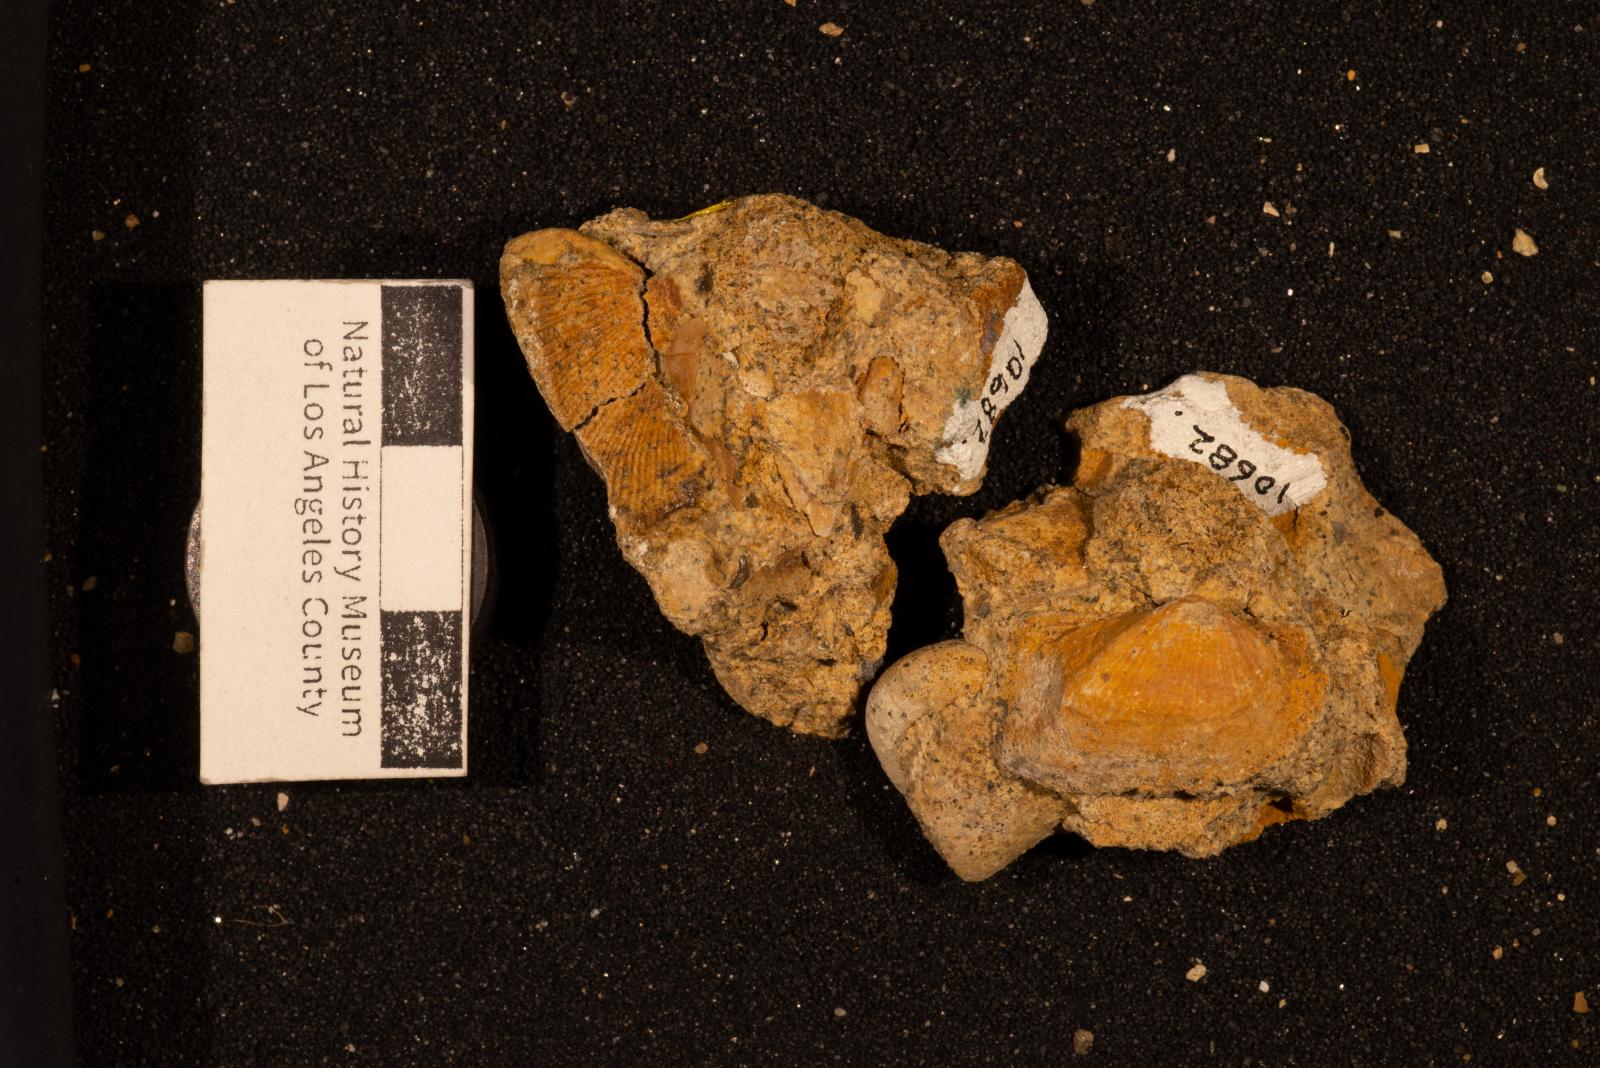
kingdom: Animalia
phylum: Mollusca
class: Bivalvia
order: Arcida
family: Arcidae
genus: Indogrammatodon
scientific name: Indogrammatodon
